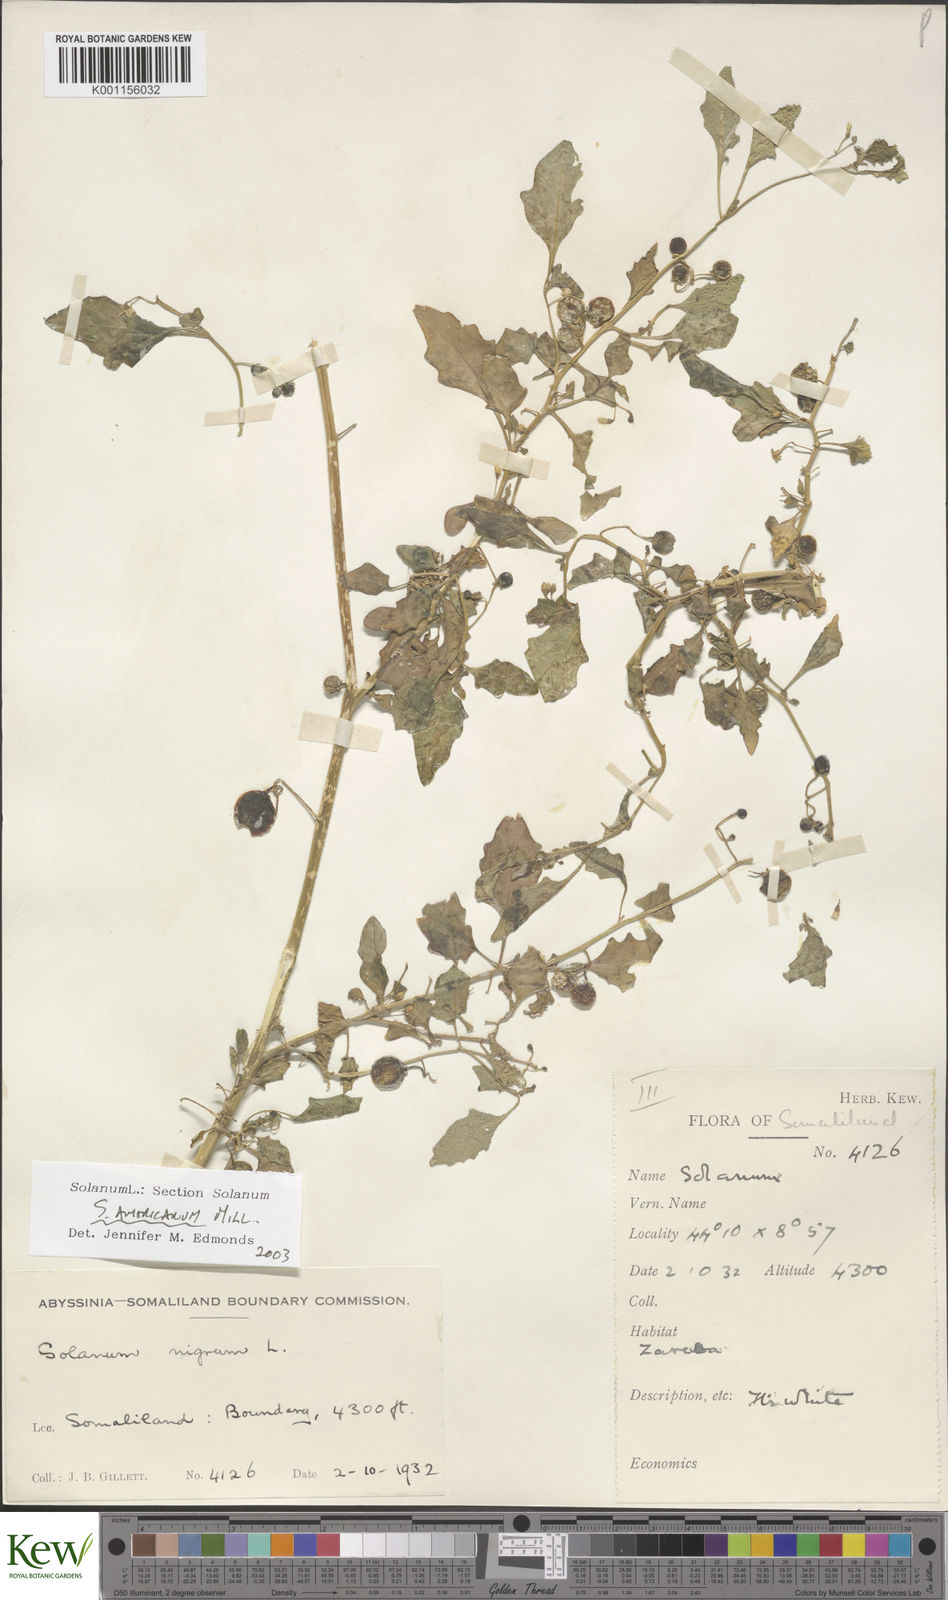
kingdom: Plantae
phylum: Tracheophyta
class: Magnoliopsida
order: Solanales
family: Solanaceae
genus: Solanum
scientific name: Solanum villosum
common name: Red nightshade
